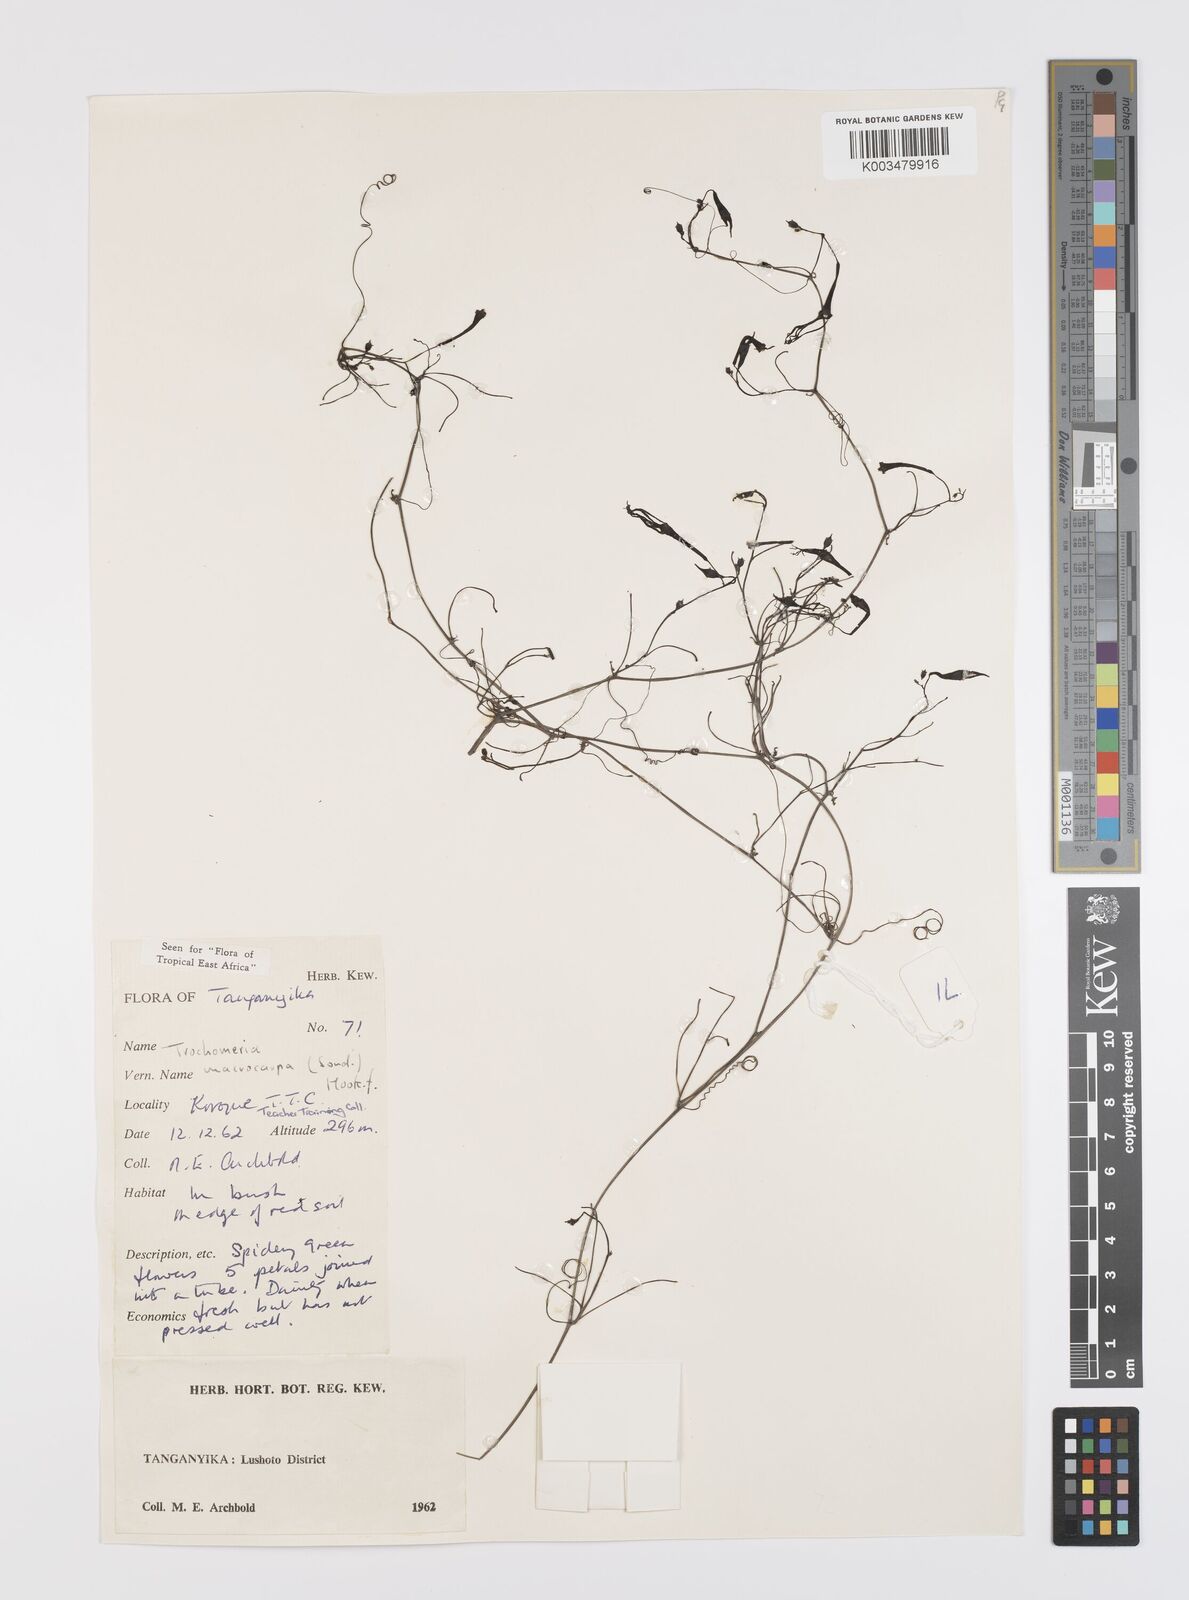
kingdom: Plantae
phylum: Tracheophyta
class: Magnoliopsida
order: Cucurbitales
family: Cucurbitaceae
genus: Trochomeria
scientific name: Trochomeria macrocarpa
